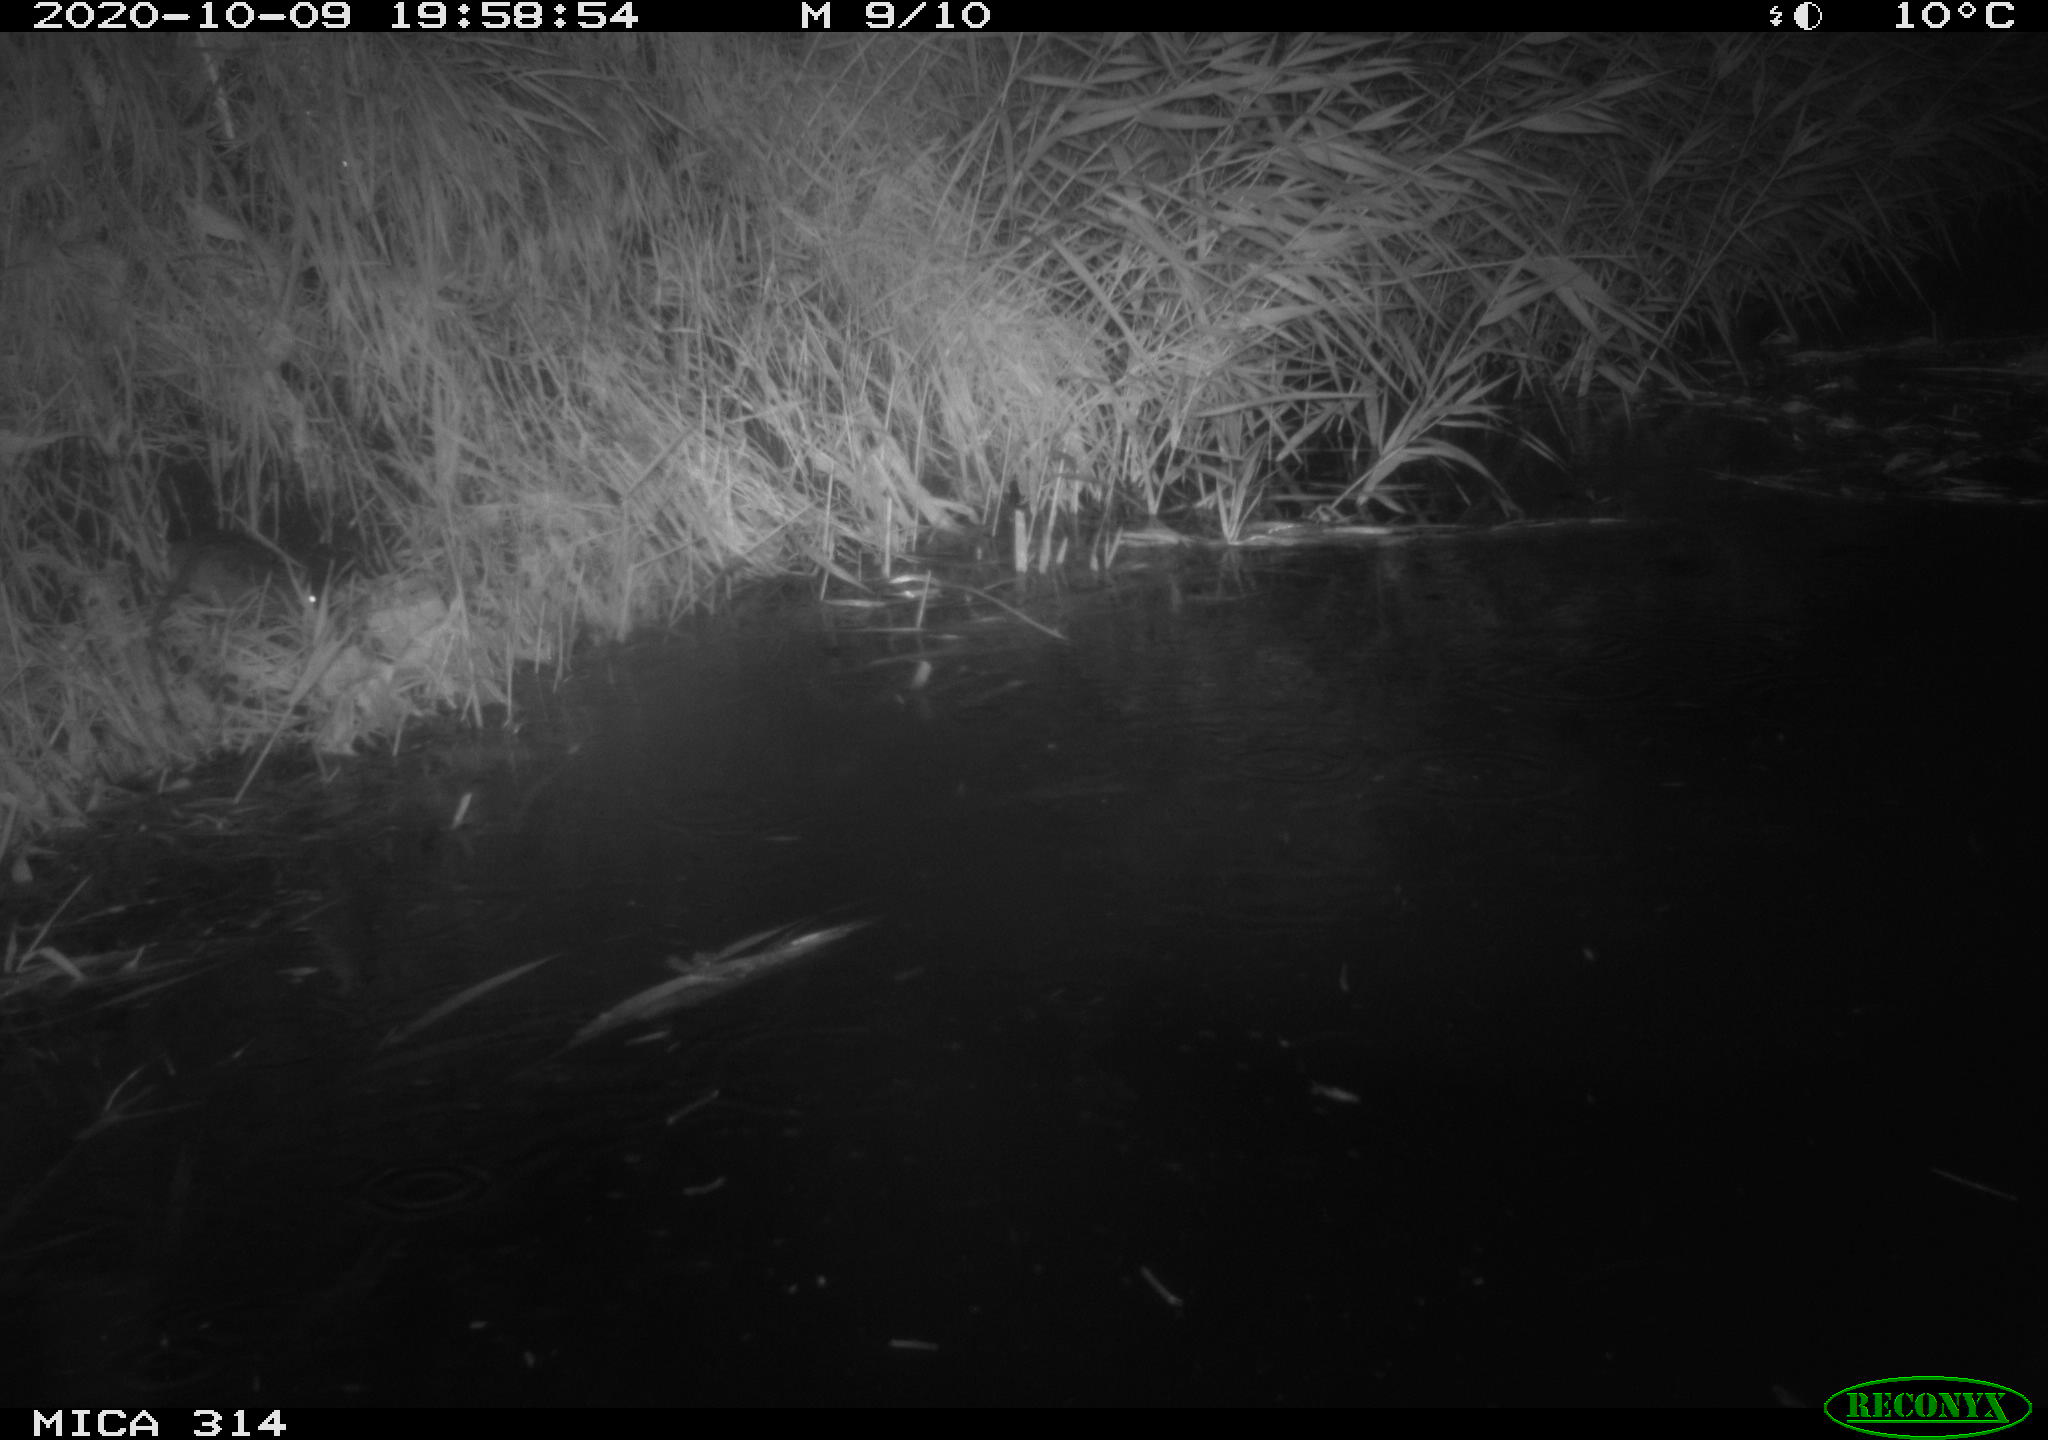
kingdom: Animalia
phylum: Chordata
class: Mammalia
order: Rodentia
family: Muridae
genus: Rattus
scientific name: Rattus norvegicus
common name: Brown rat
